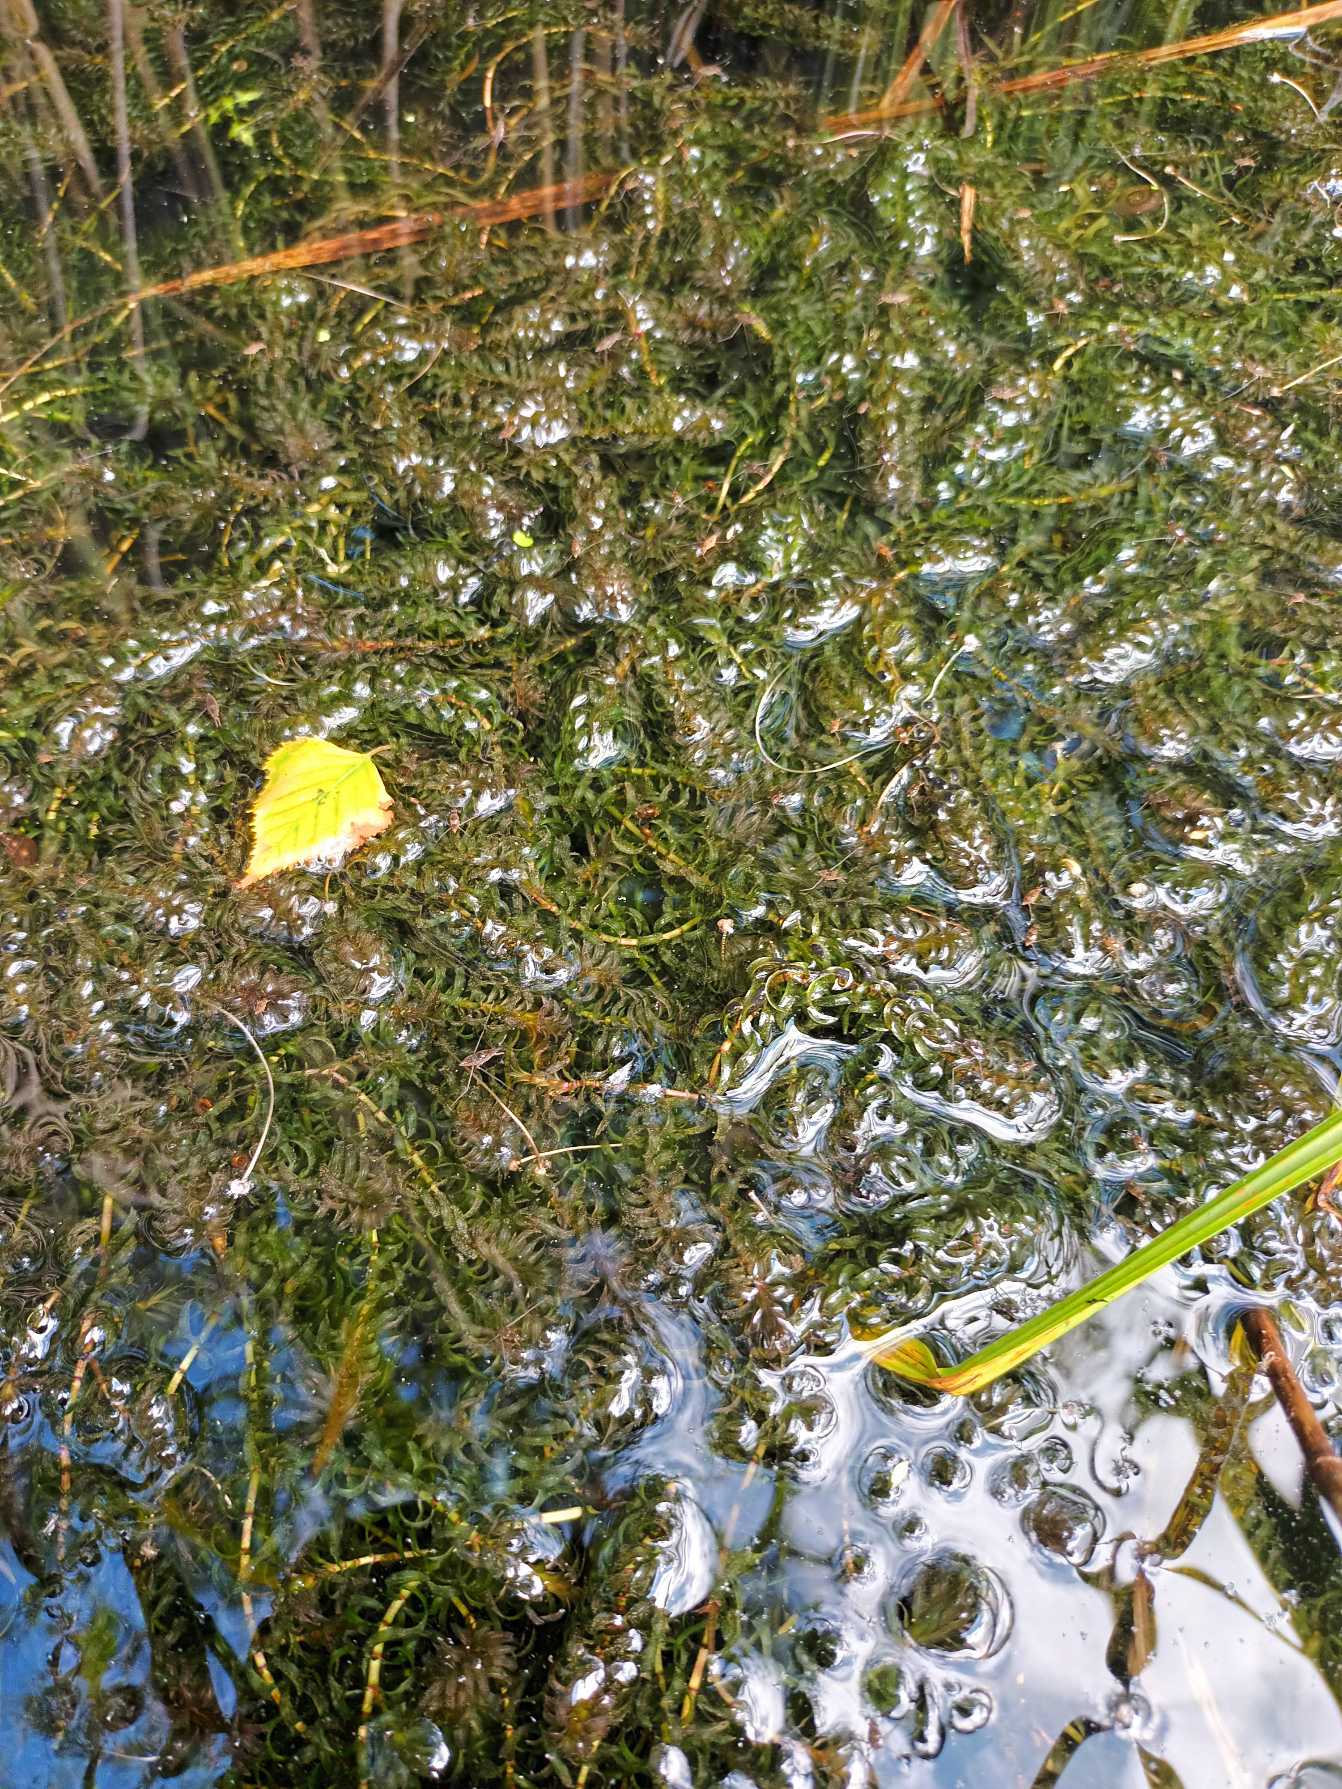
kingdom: Plantae
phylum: Tracheophyta
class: Liliopsida
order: Alismatales
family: Hydrocharitaceae
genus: Elodea
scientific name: Elodea nuttallii
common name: Smalbladet vandpest
